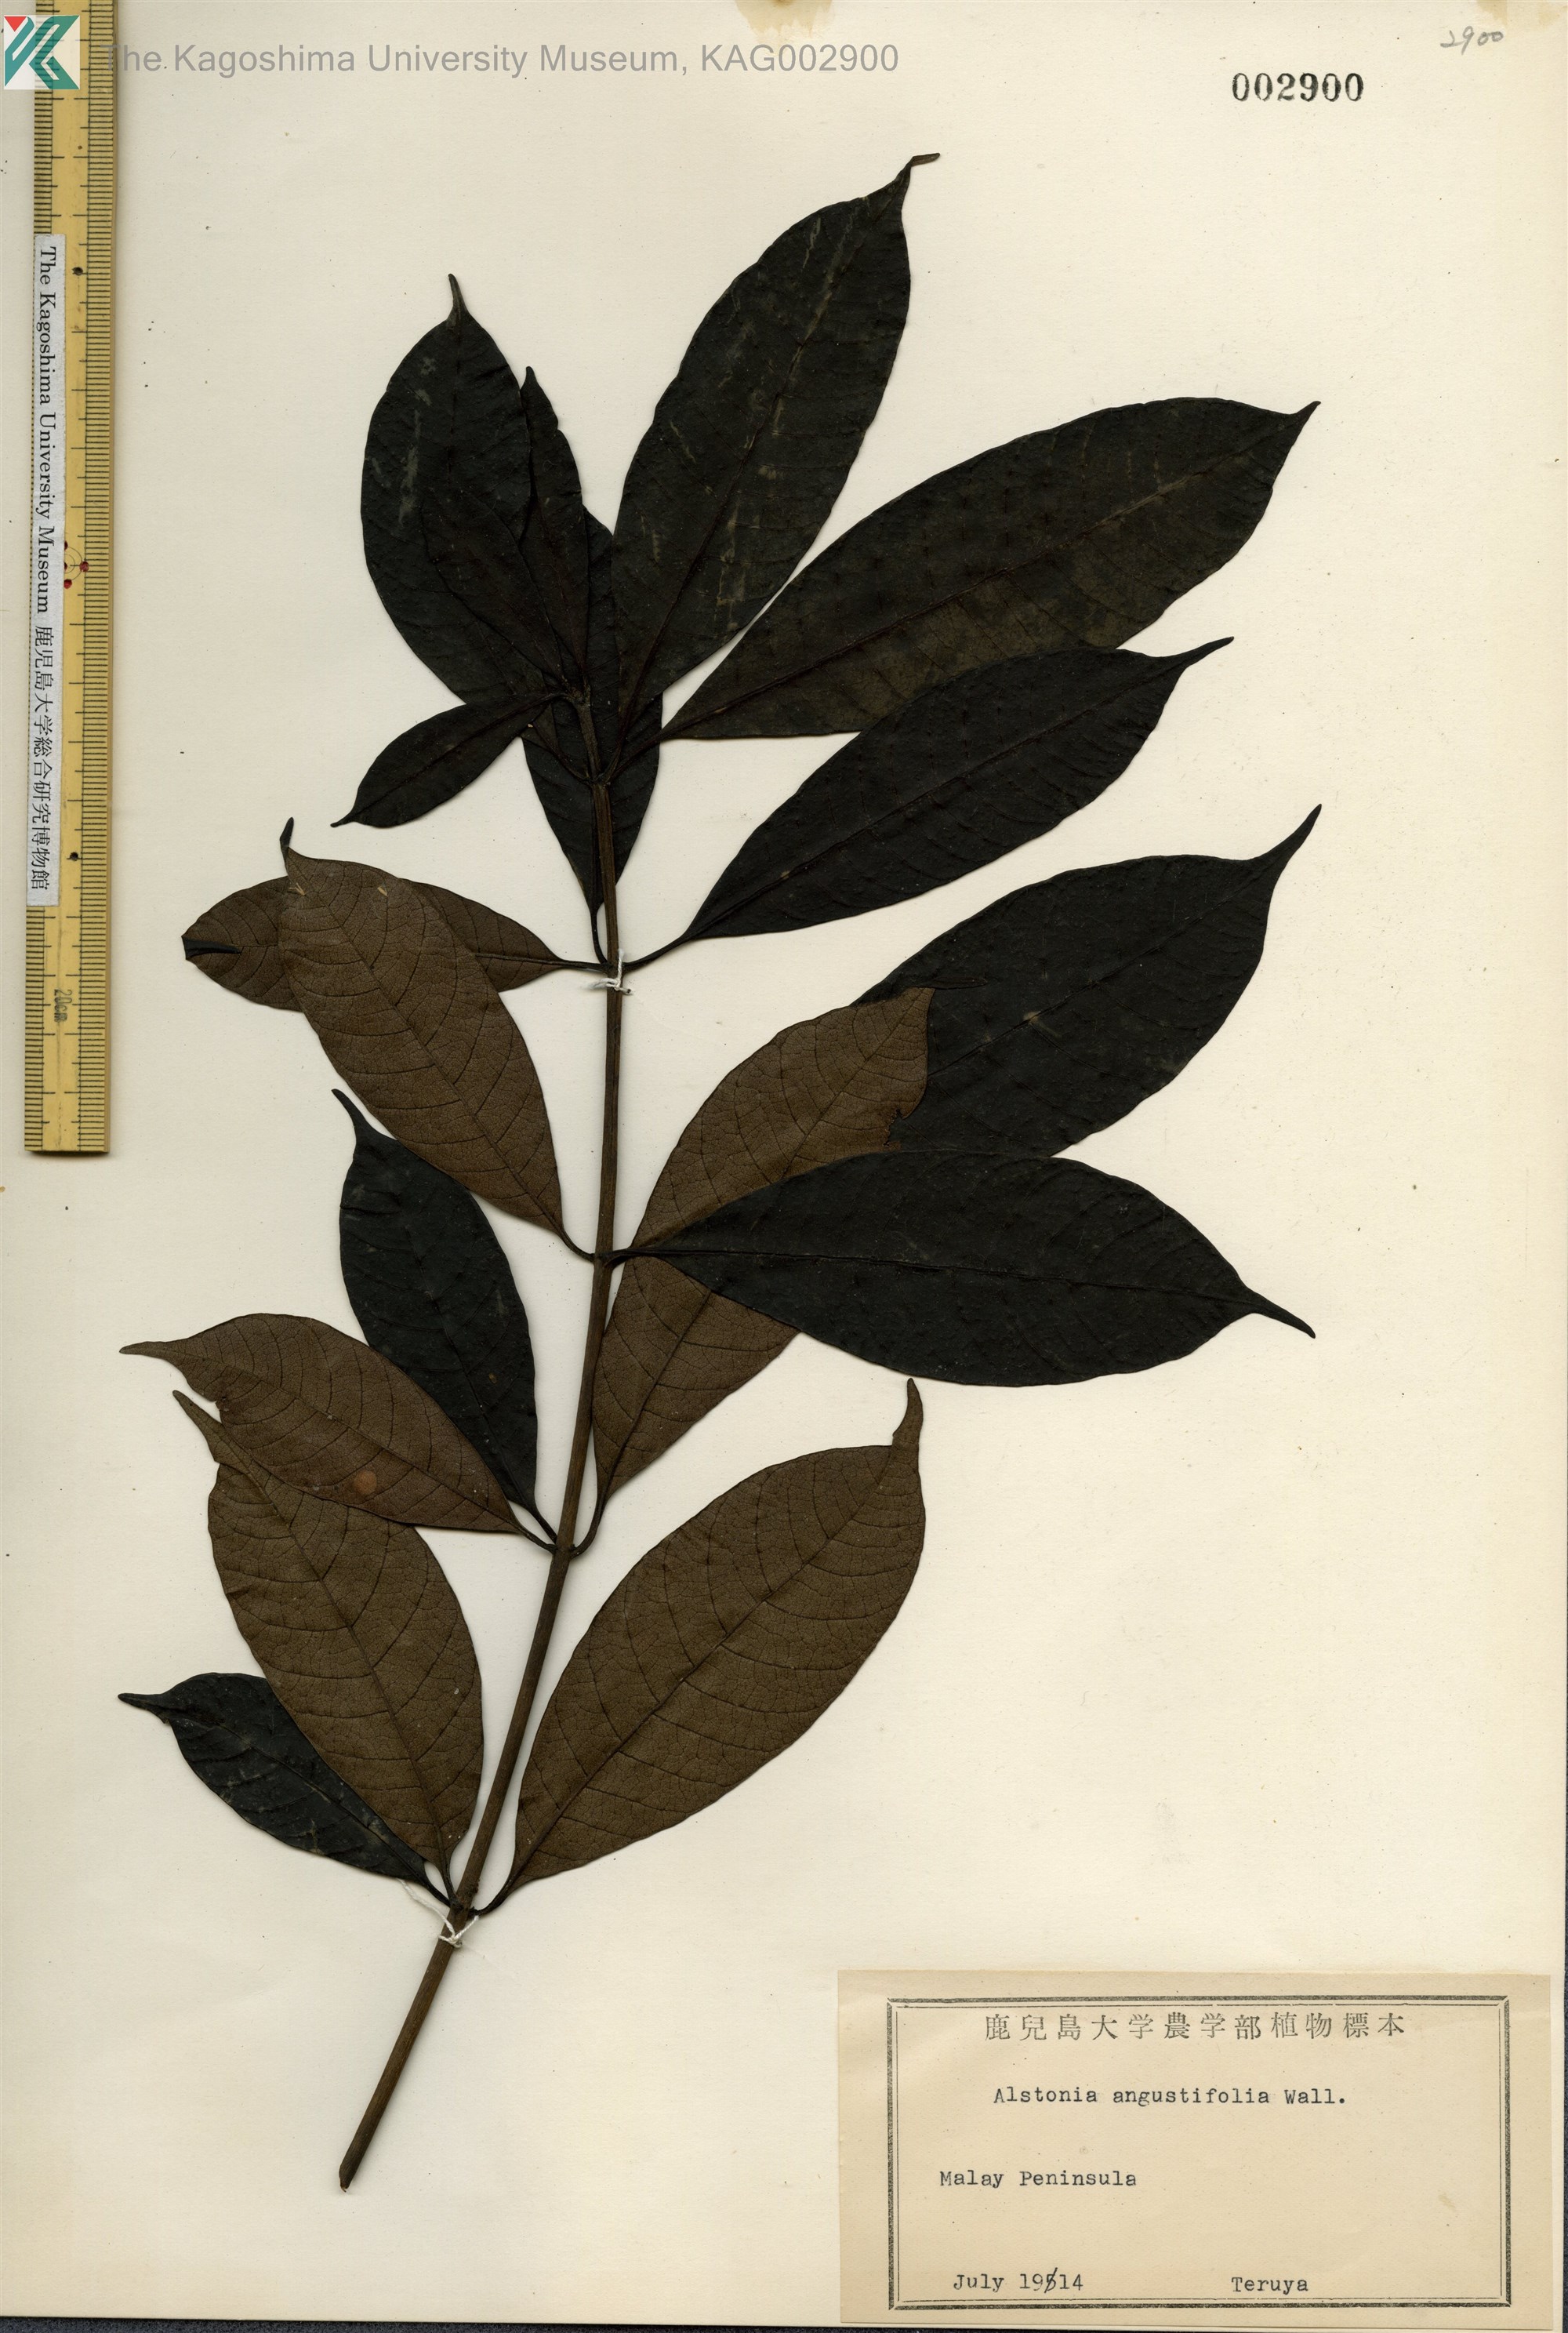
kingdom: Plantae
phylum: Tracheophyta
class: Magnoliopsida
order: Gentianales
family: Apocynaceae
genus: Alstonia
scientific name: Alstonia angustifolia
